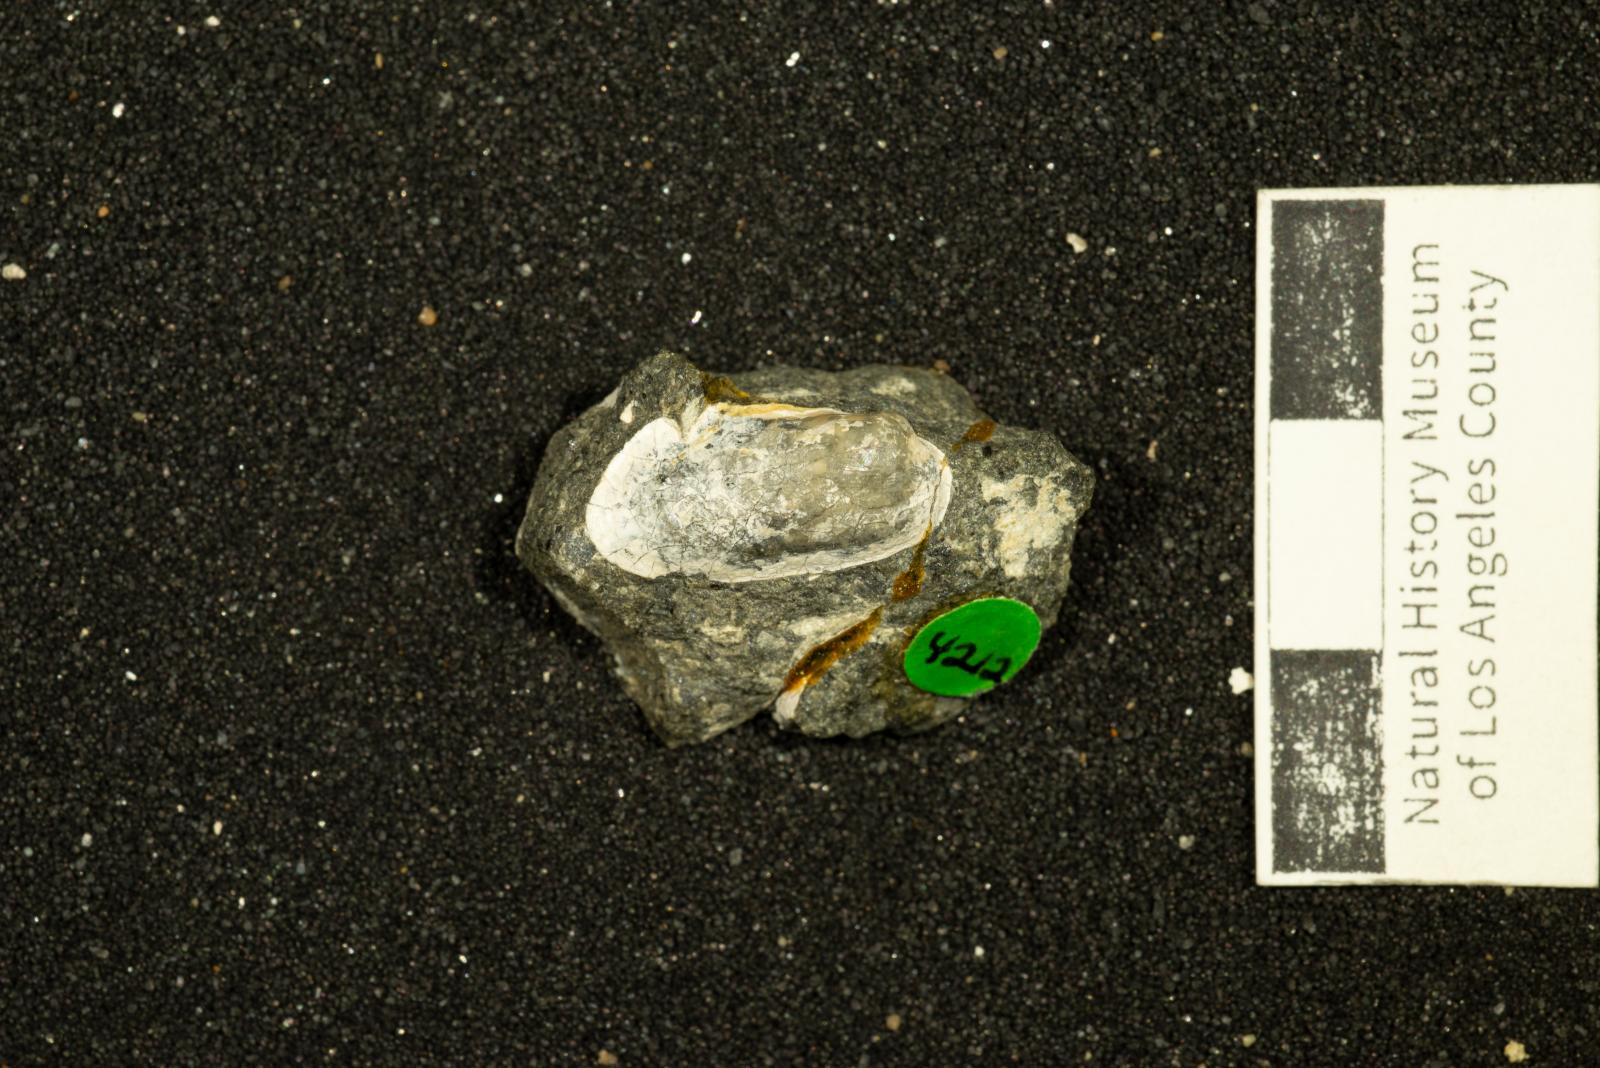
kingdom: Animalia
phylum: Mollusca
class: Bivalvia
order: Mytilida
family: Mytilidae
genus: Modiolus
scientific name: Modiolus Modiola siskiyouensis
